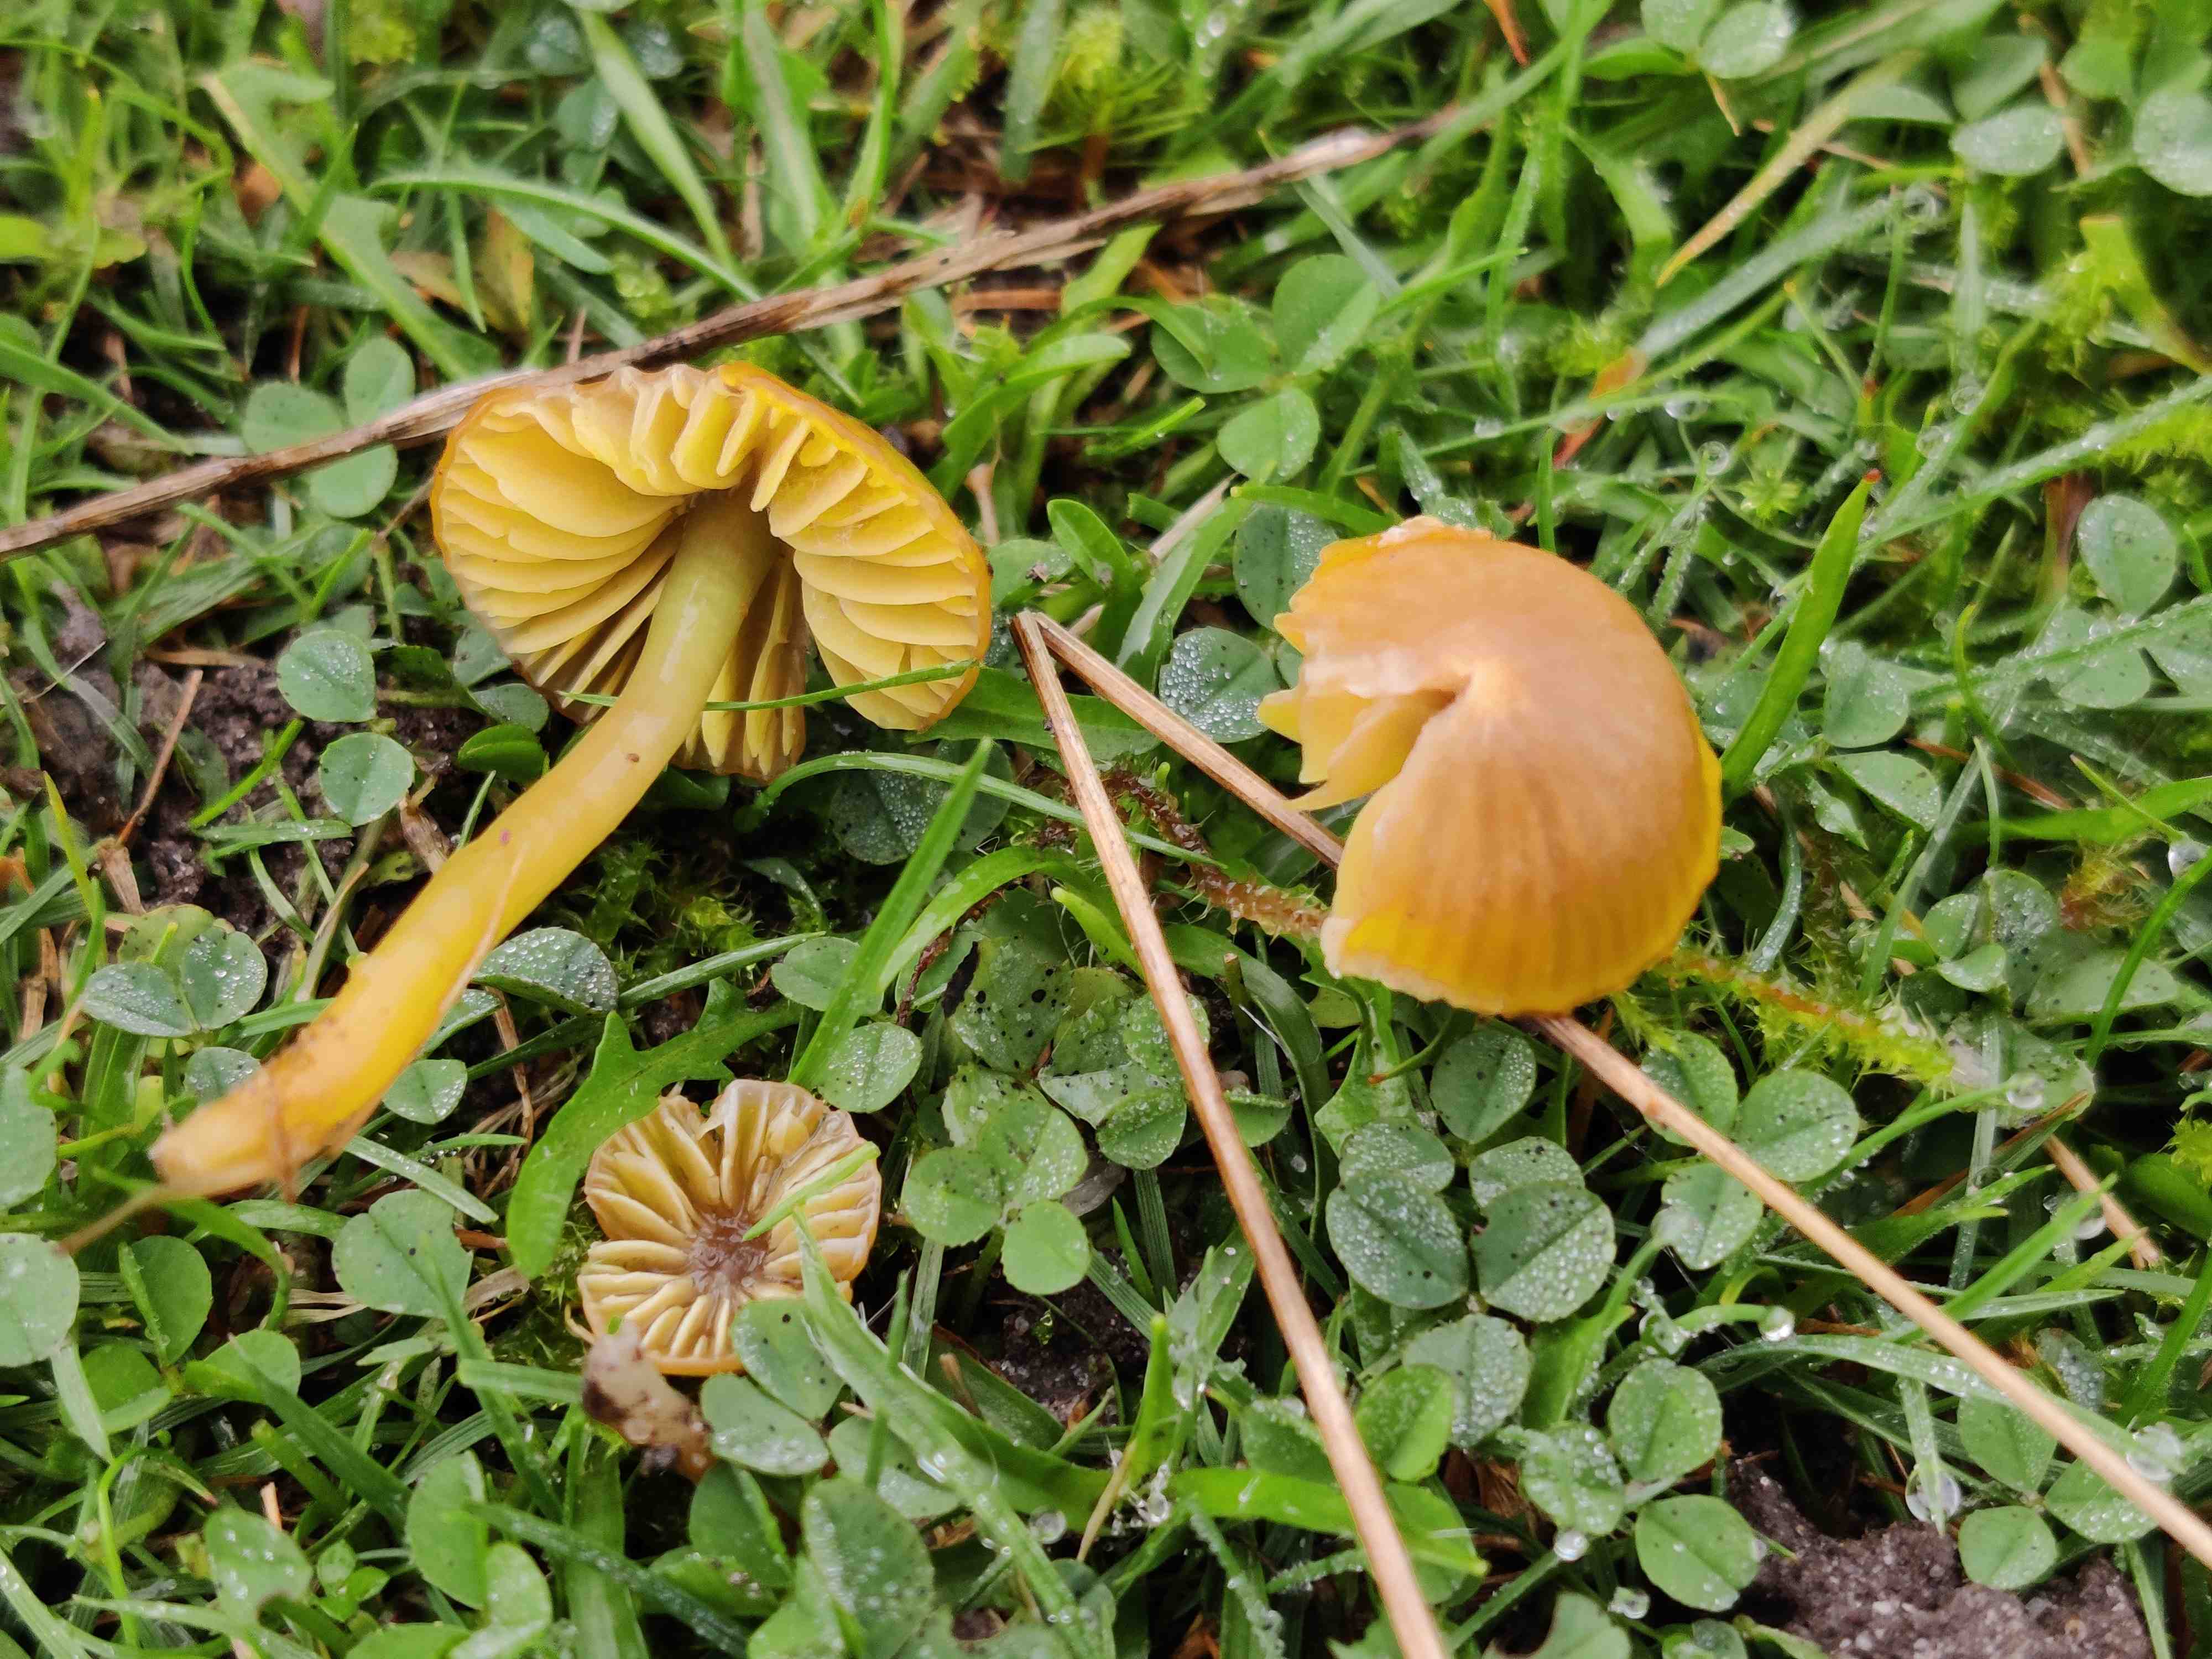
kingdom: Fungi
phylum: Basidiomycota
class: Agaricomycetes
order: Agaricales
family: Hygrophoraceae
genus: Gliophorus
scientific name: Gliophorus psittacinus
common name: papegøje-vokshat
